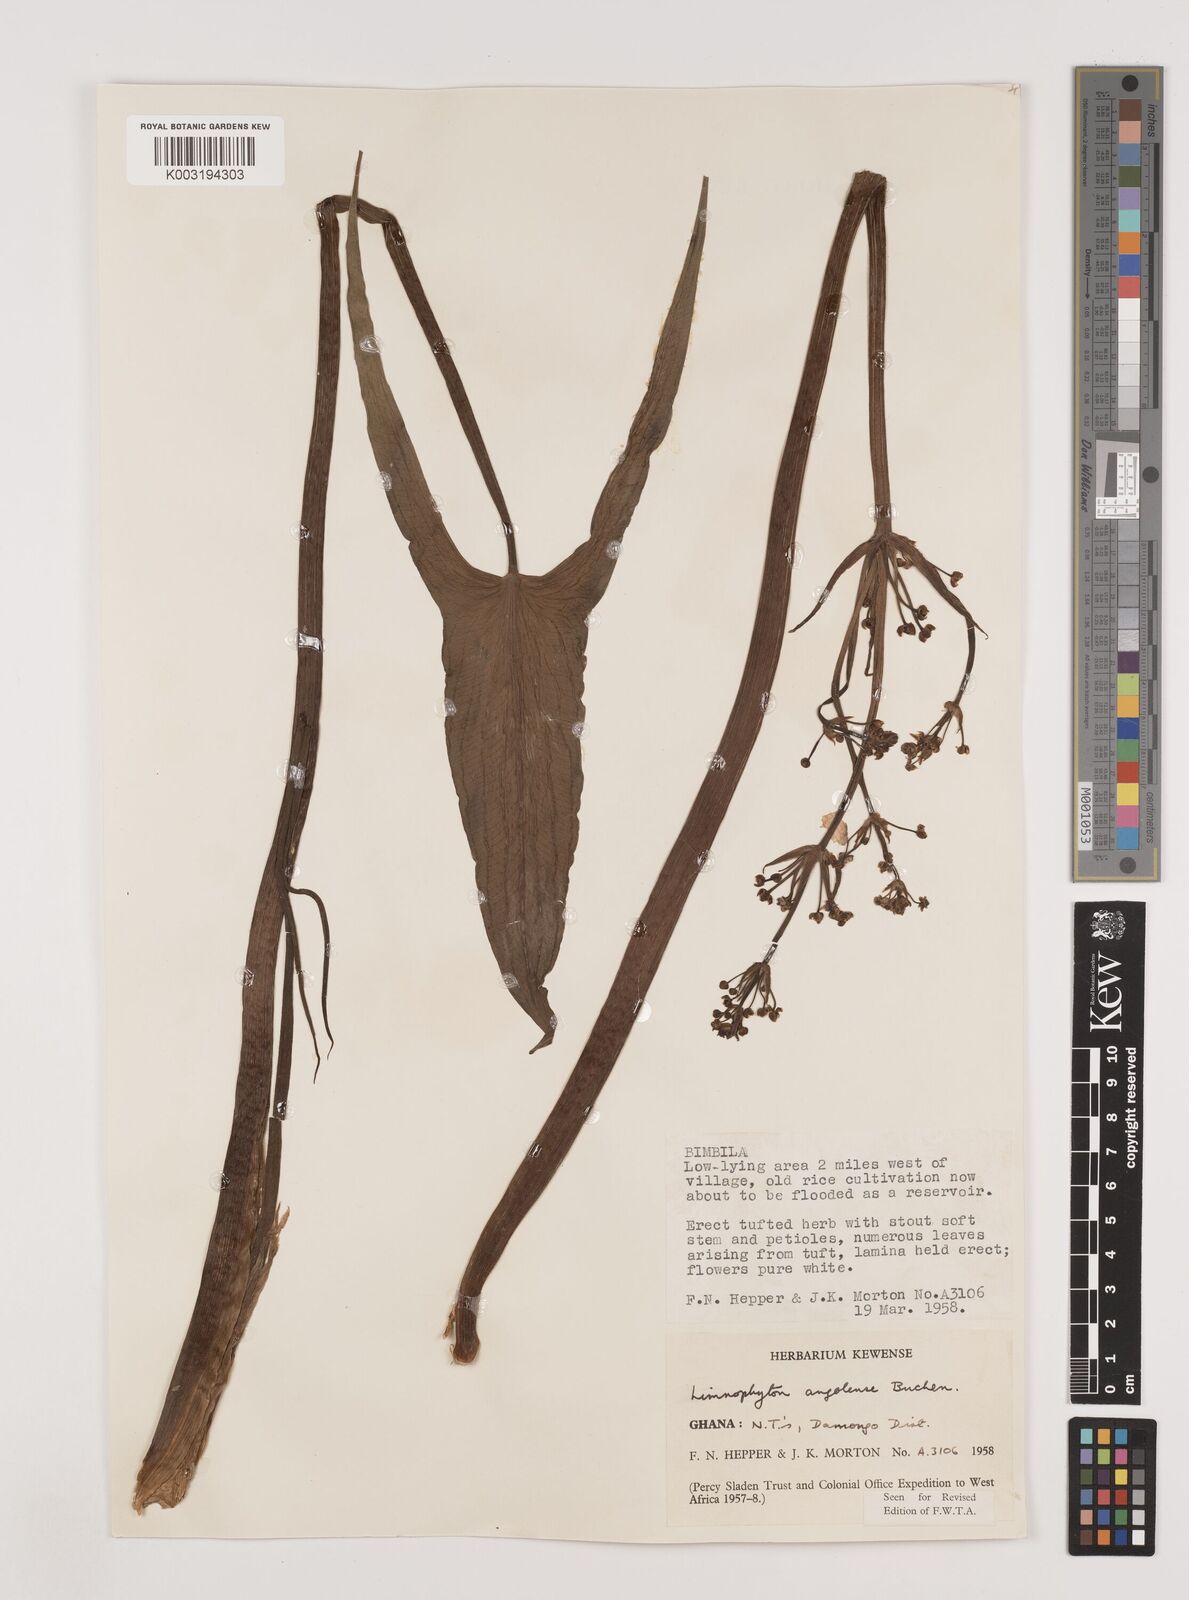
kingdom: Plantae
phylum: Tracheophyta
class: Liliopsida
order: Alismatales
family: Alismataceae
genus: Limnophyton
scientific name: Limnophyton angolense
